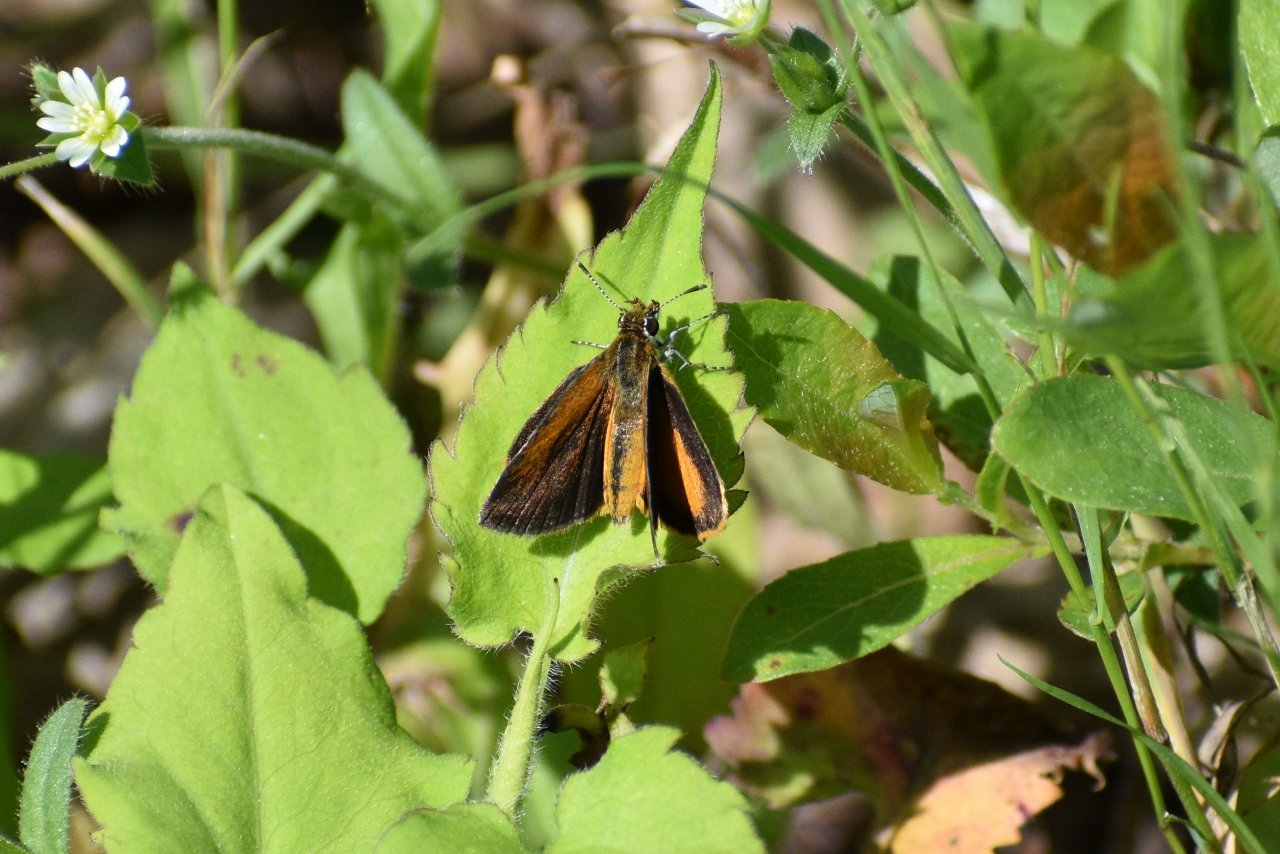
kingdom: Animalia
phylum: Arthropoda
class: Insecta
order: Lepidoptera
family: Hesperiidae
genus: Ancyloxypha
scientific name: Ancyloxypha numitor
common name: Least Skipper
